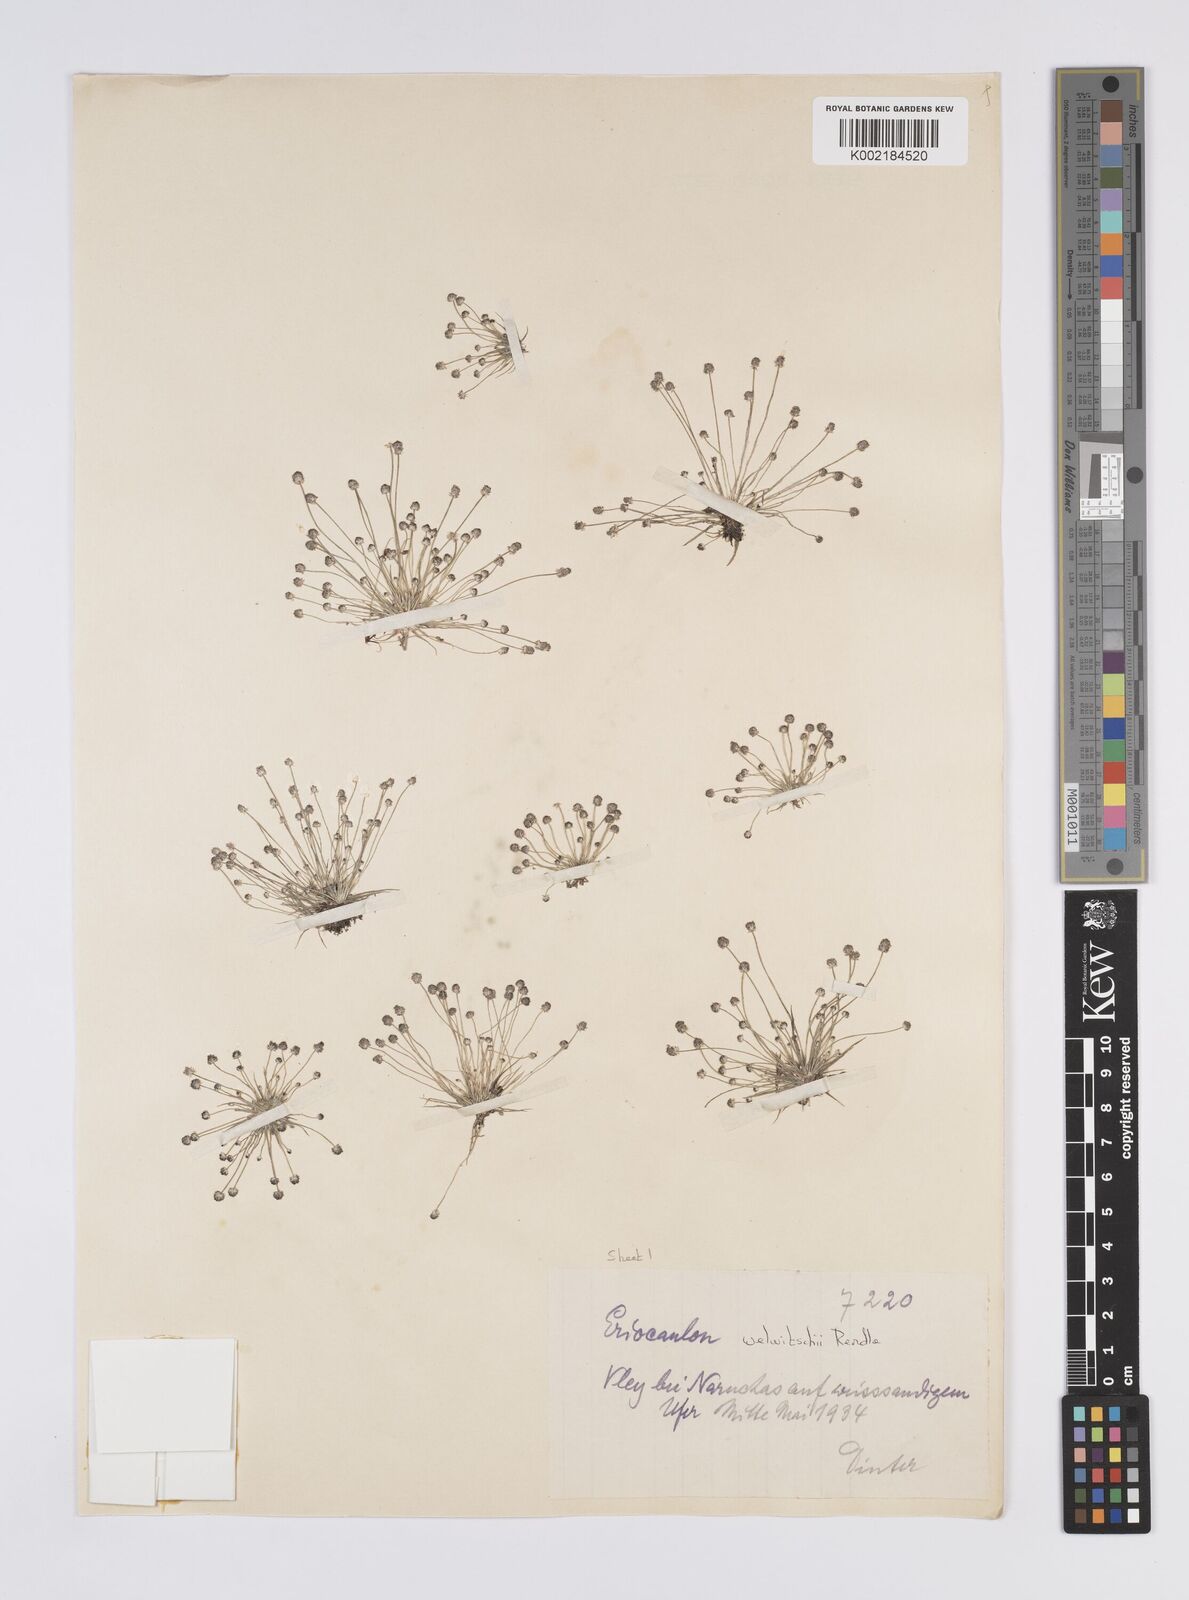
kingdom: Plantae
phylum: Tracheophyta
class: Liliopsida
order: Poales
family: Eriocaulaceae
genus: Eriocaulon
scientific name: Eriocaulon welwitschii
